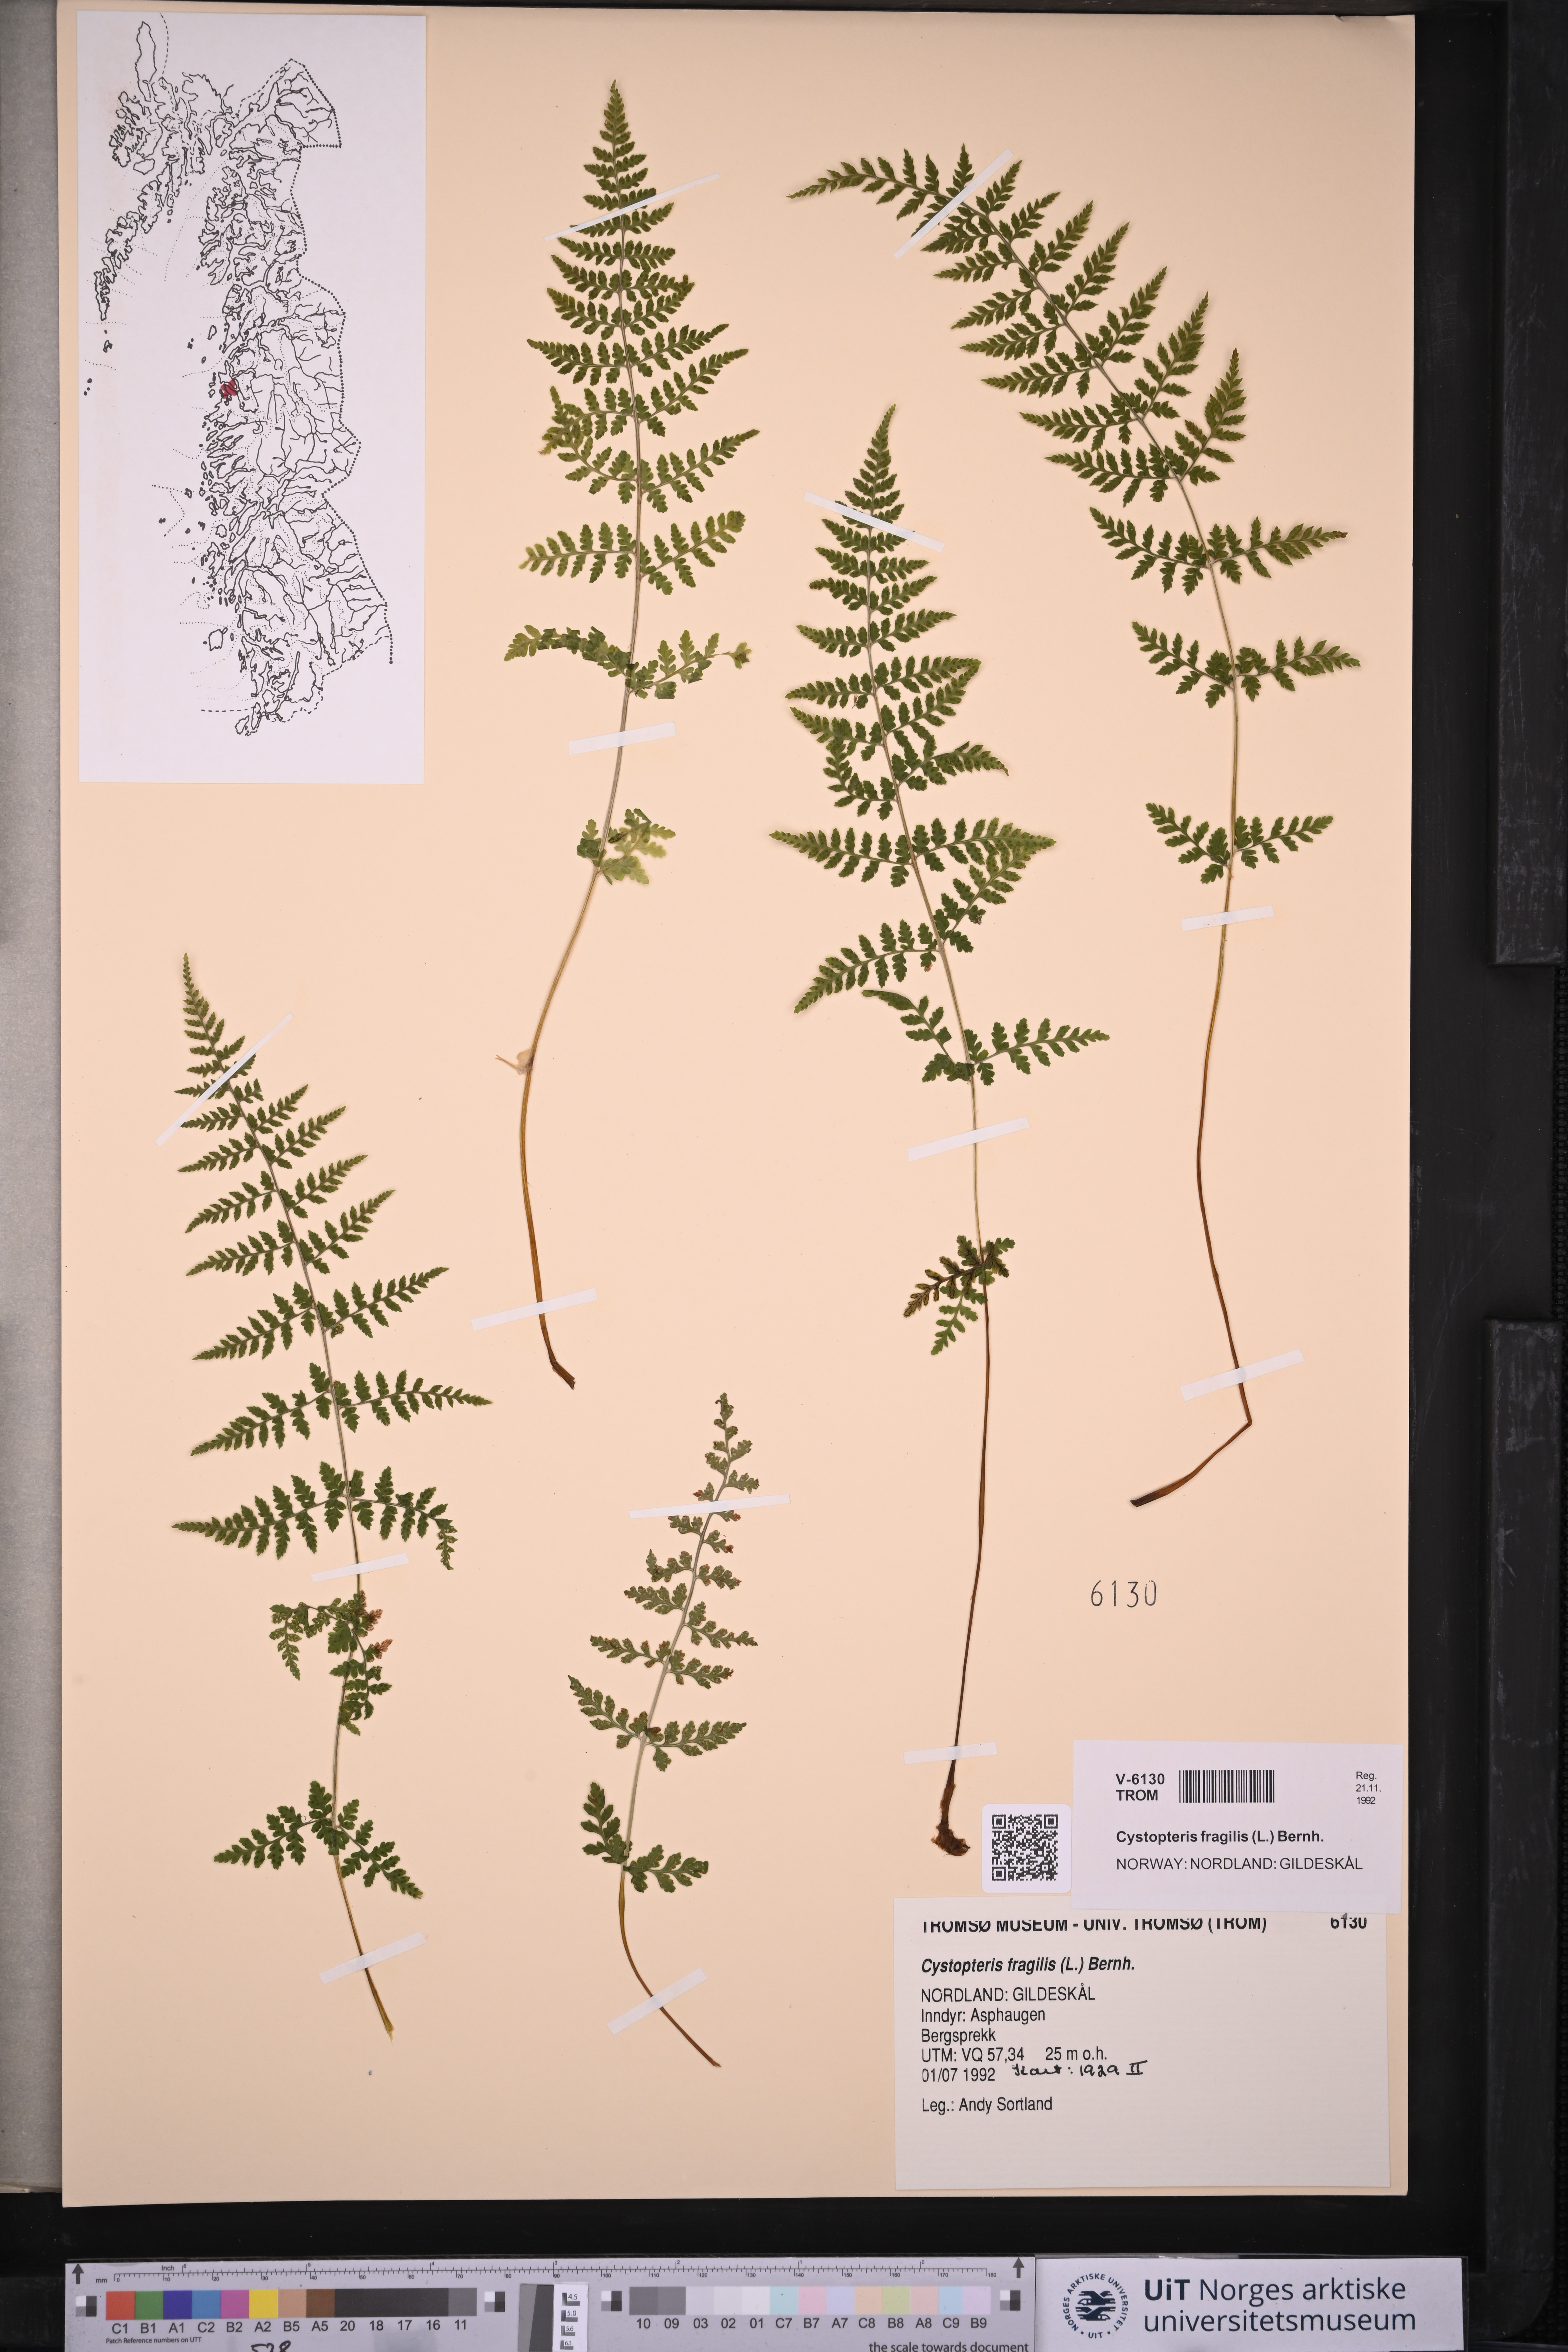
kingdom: Plantae
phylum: Tracheophyta
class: Polypodiopsida
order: Polypodiales
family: Cystopteridaceae
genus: Cystopteris
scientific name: Cystopteris fragilis
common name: Brittle bladder fern
